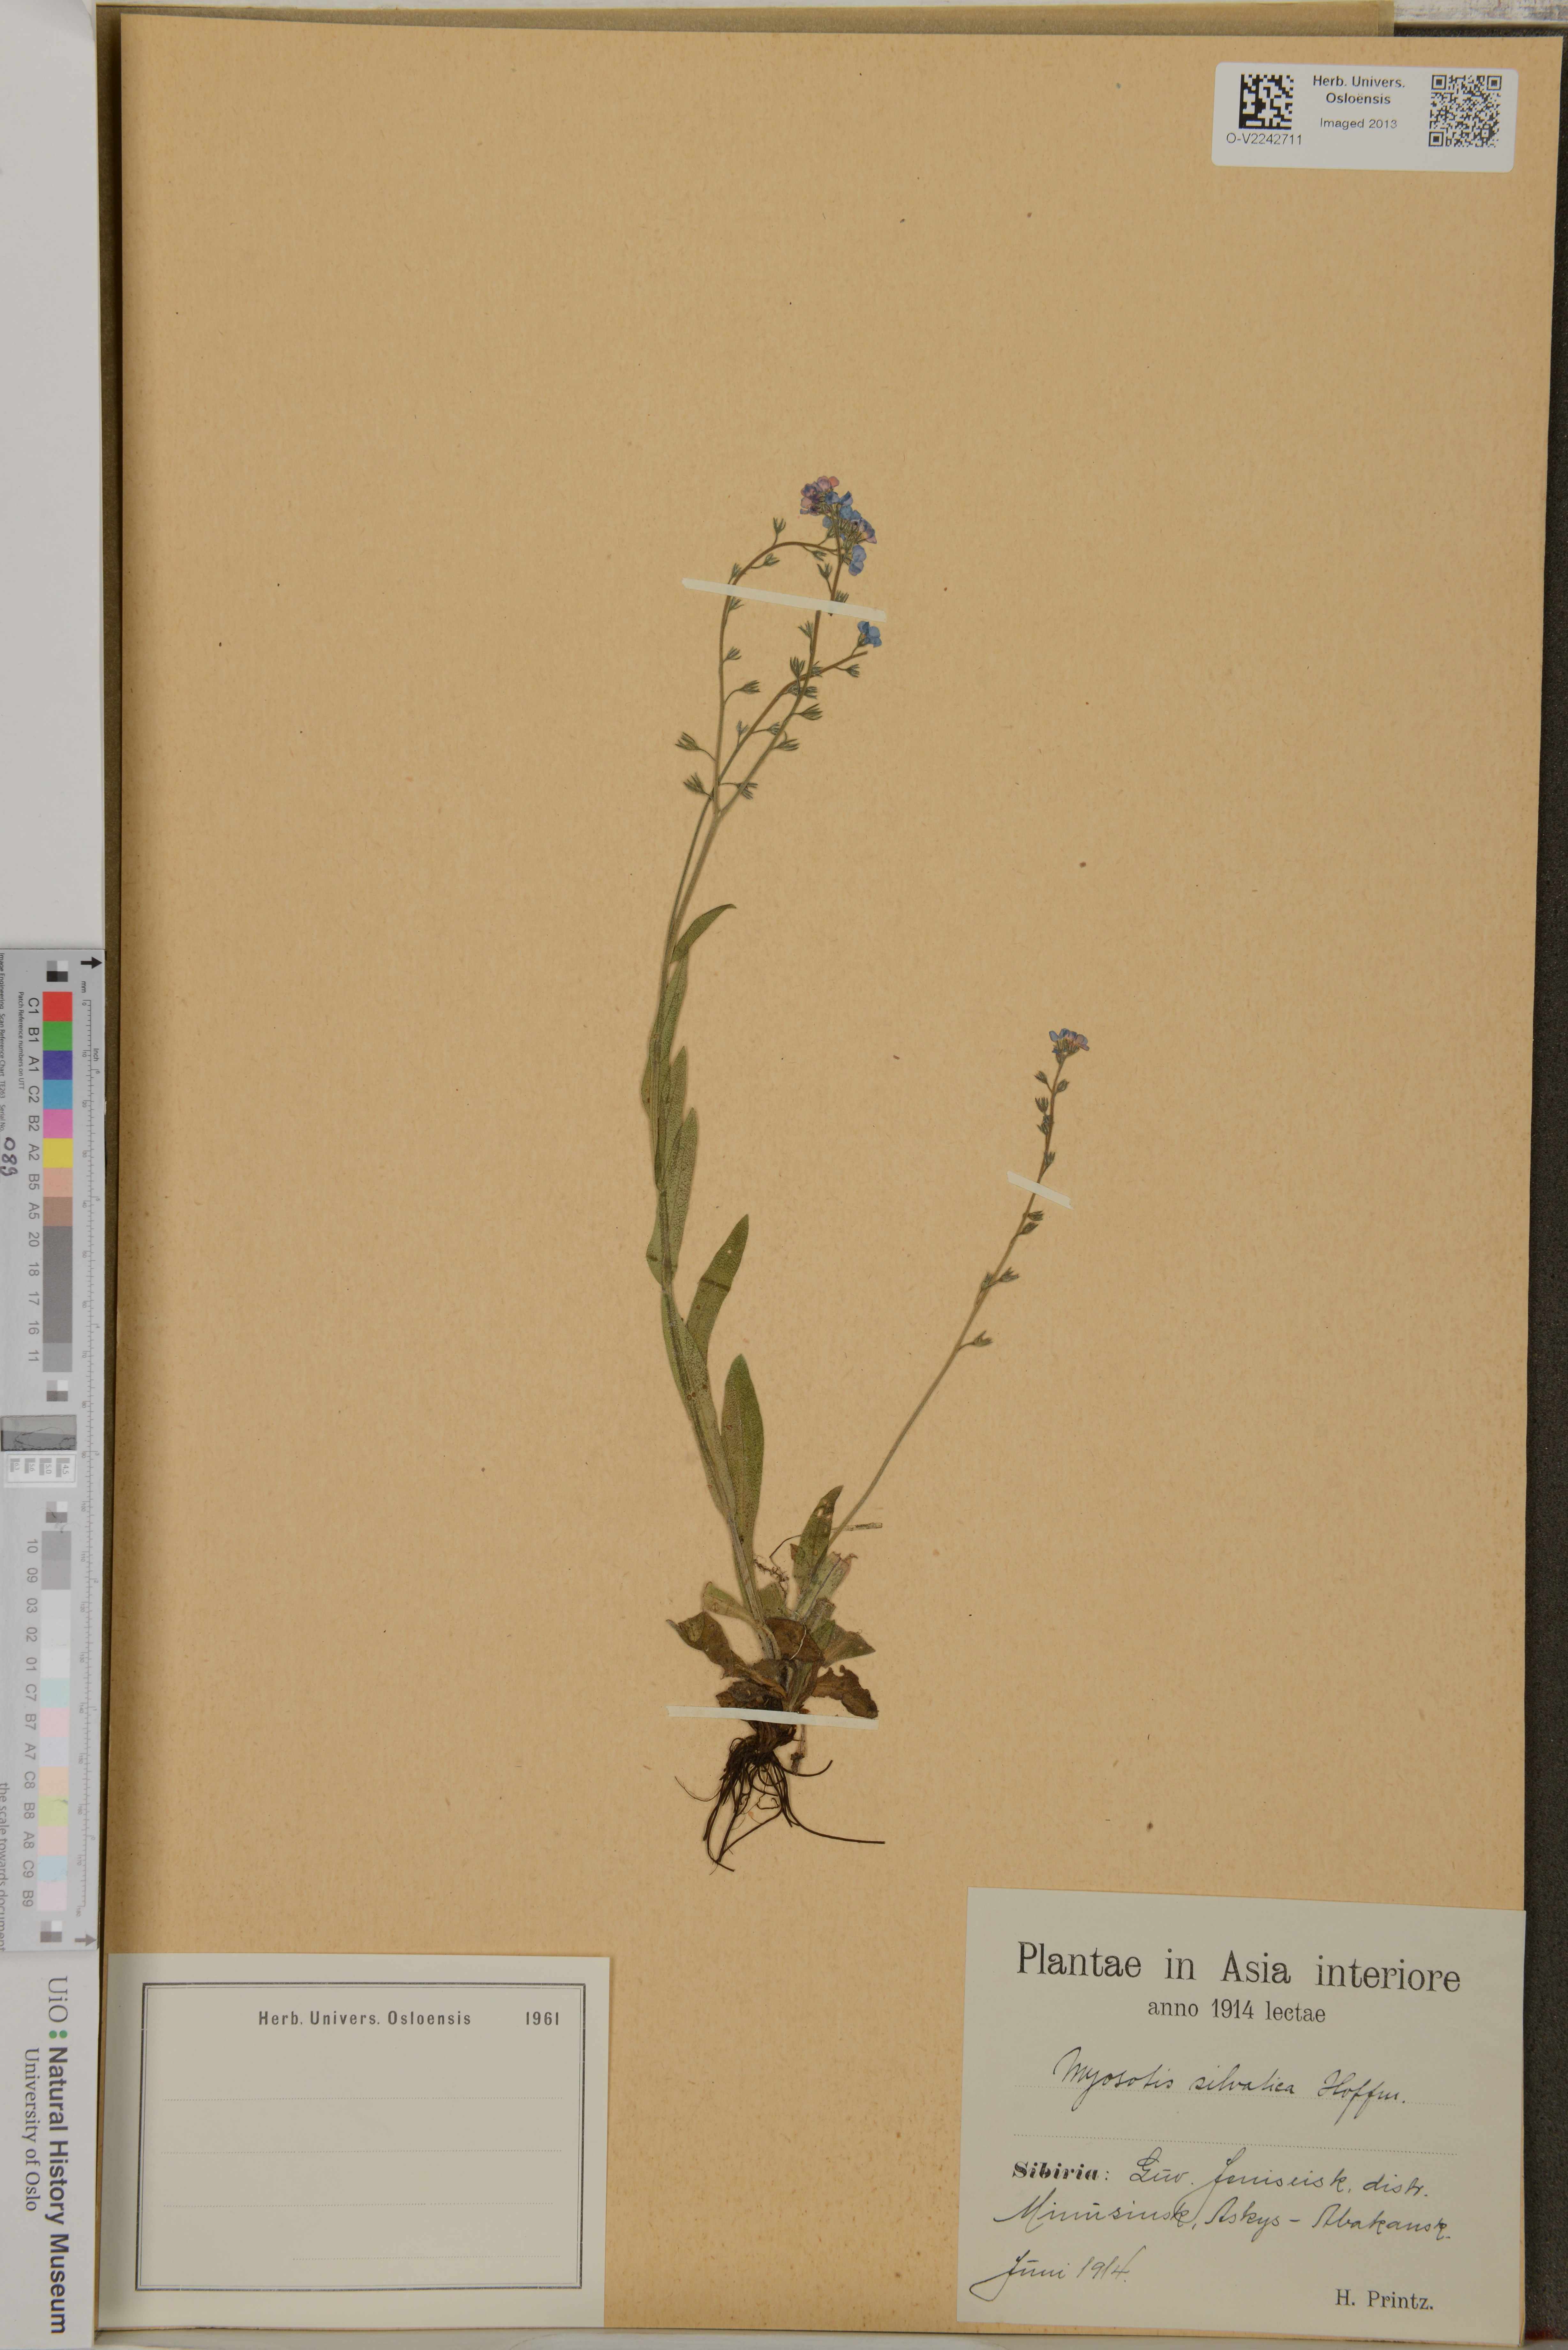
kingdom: Plantae
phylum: Tracheophyta
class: Magnoliopsida
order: Boraginales
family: Boraginaceae
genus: Myosotis
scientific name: Myosotis sylvatica
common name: Wood forget-me-not
